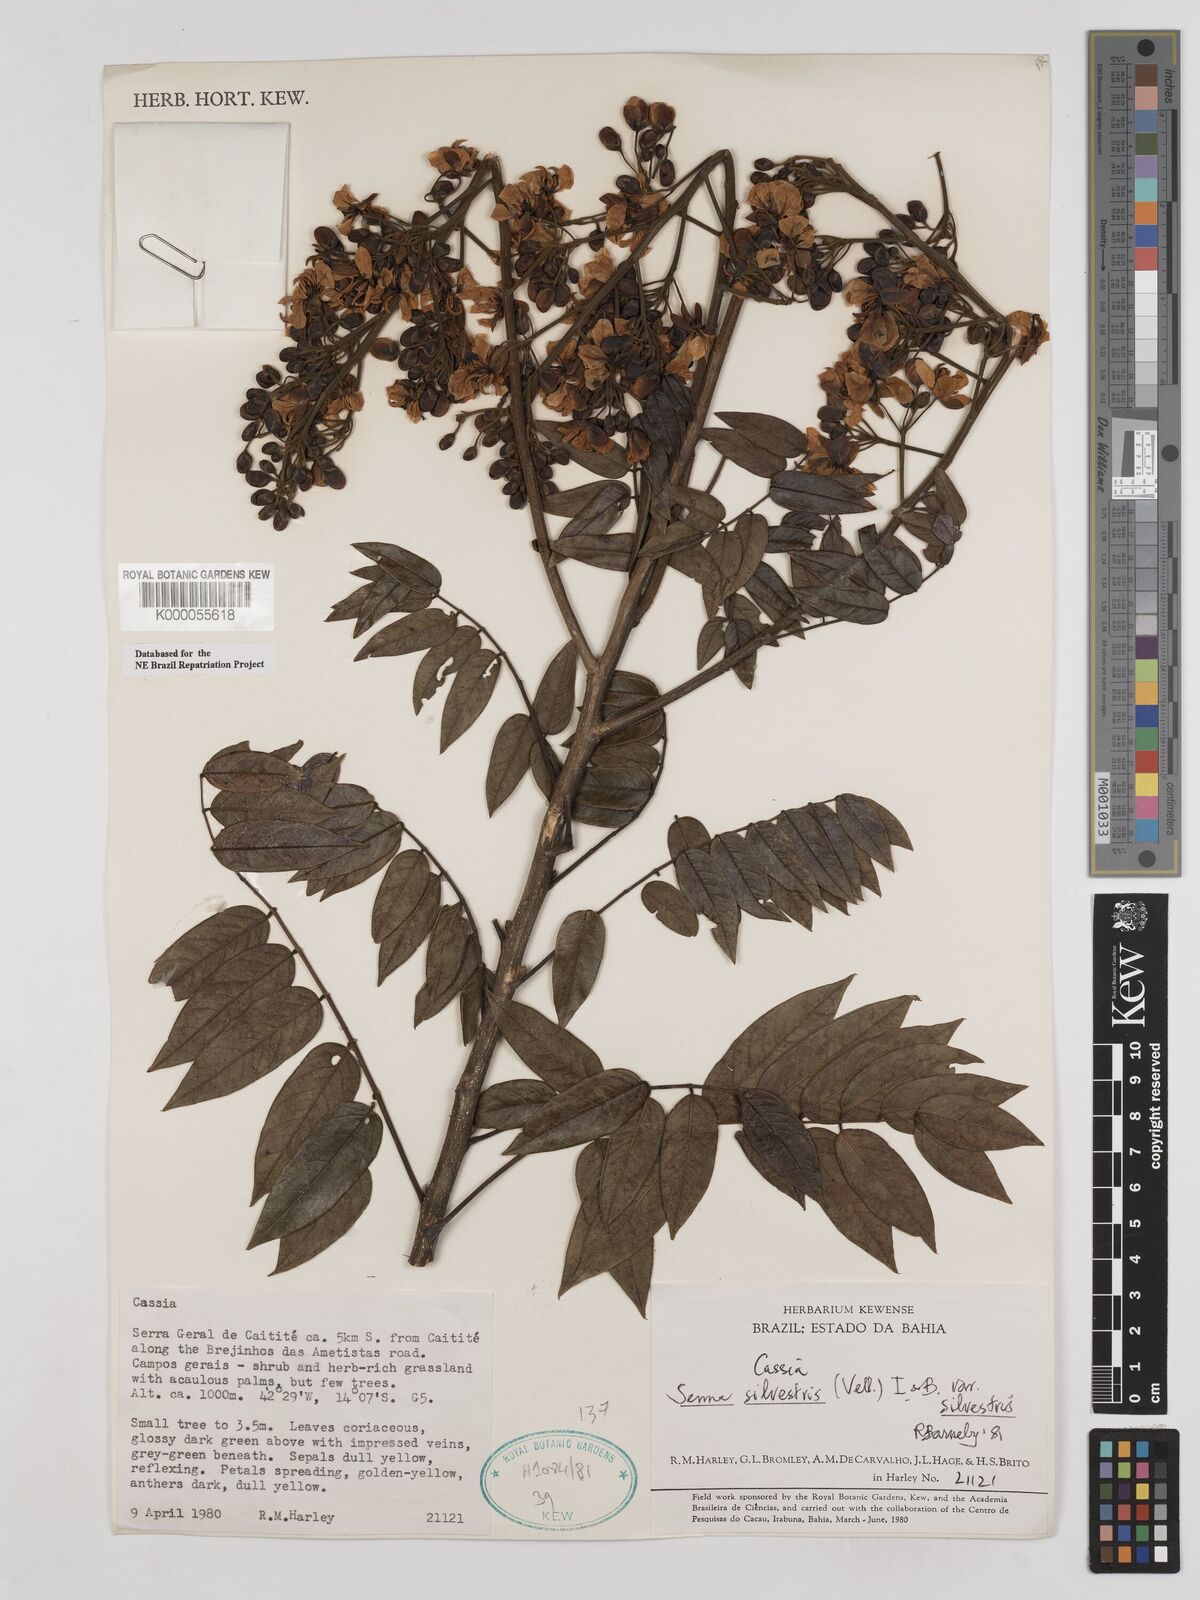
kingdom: Plantae
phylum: Tracheophyta
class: Magnoliopsida
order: Fabales
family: Fabaceae
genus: Senna
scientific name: Senna silvestris
